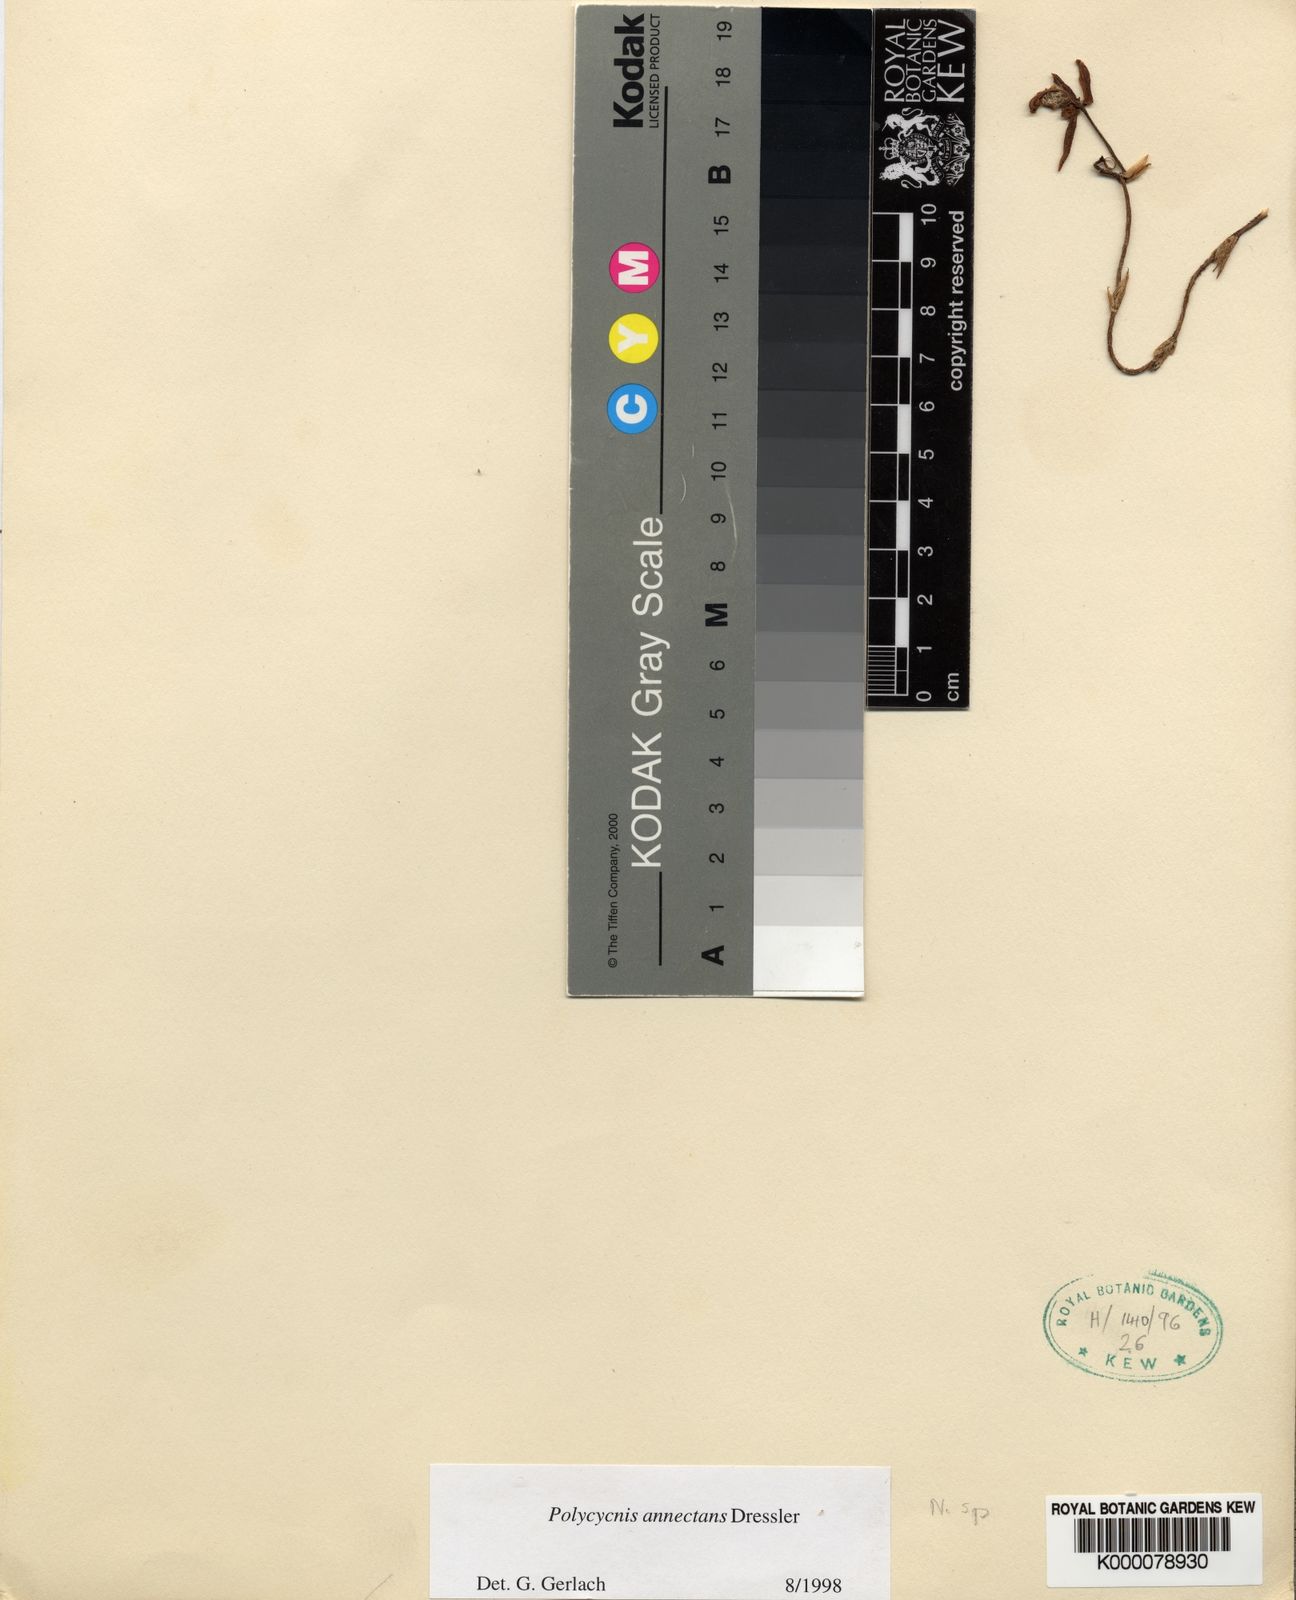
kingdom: Plantae
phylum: Tracheophyta
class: Liliopsida
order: Asparagales
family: Orchidaceae
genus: Polycycnis
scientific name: Polycycnis annectans
